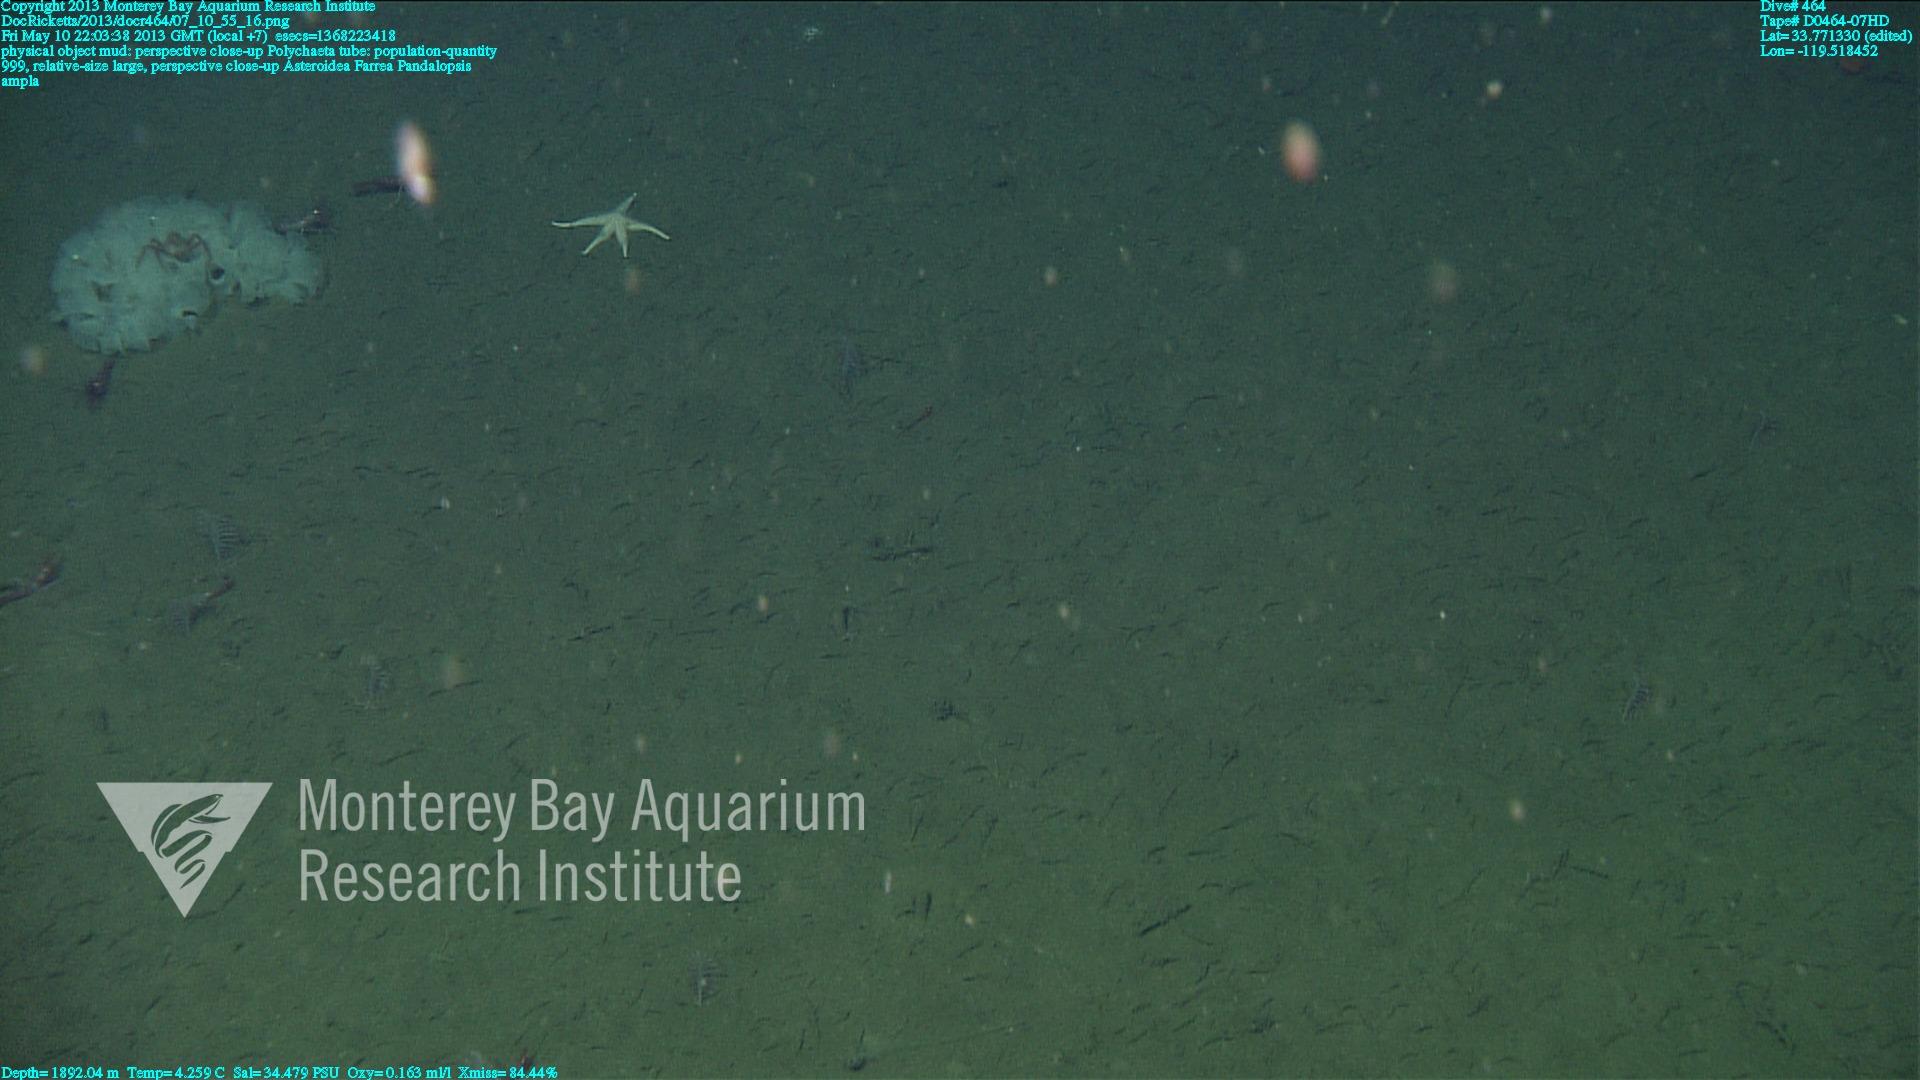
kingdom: Animalia
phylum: Porifera
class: Hexactinellida
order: Sceptrulophora
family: Farreidae
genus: Farrea
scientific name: Farrea
